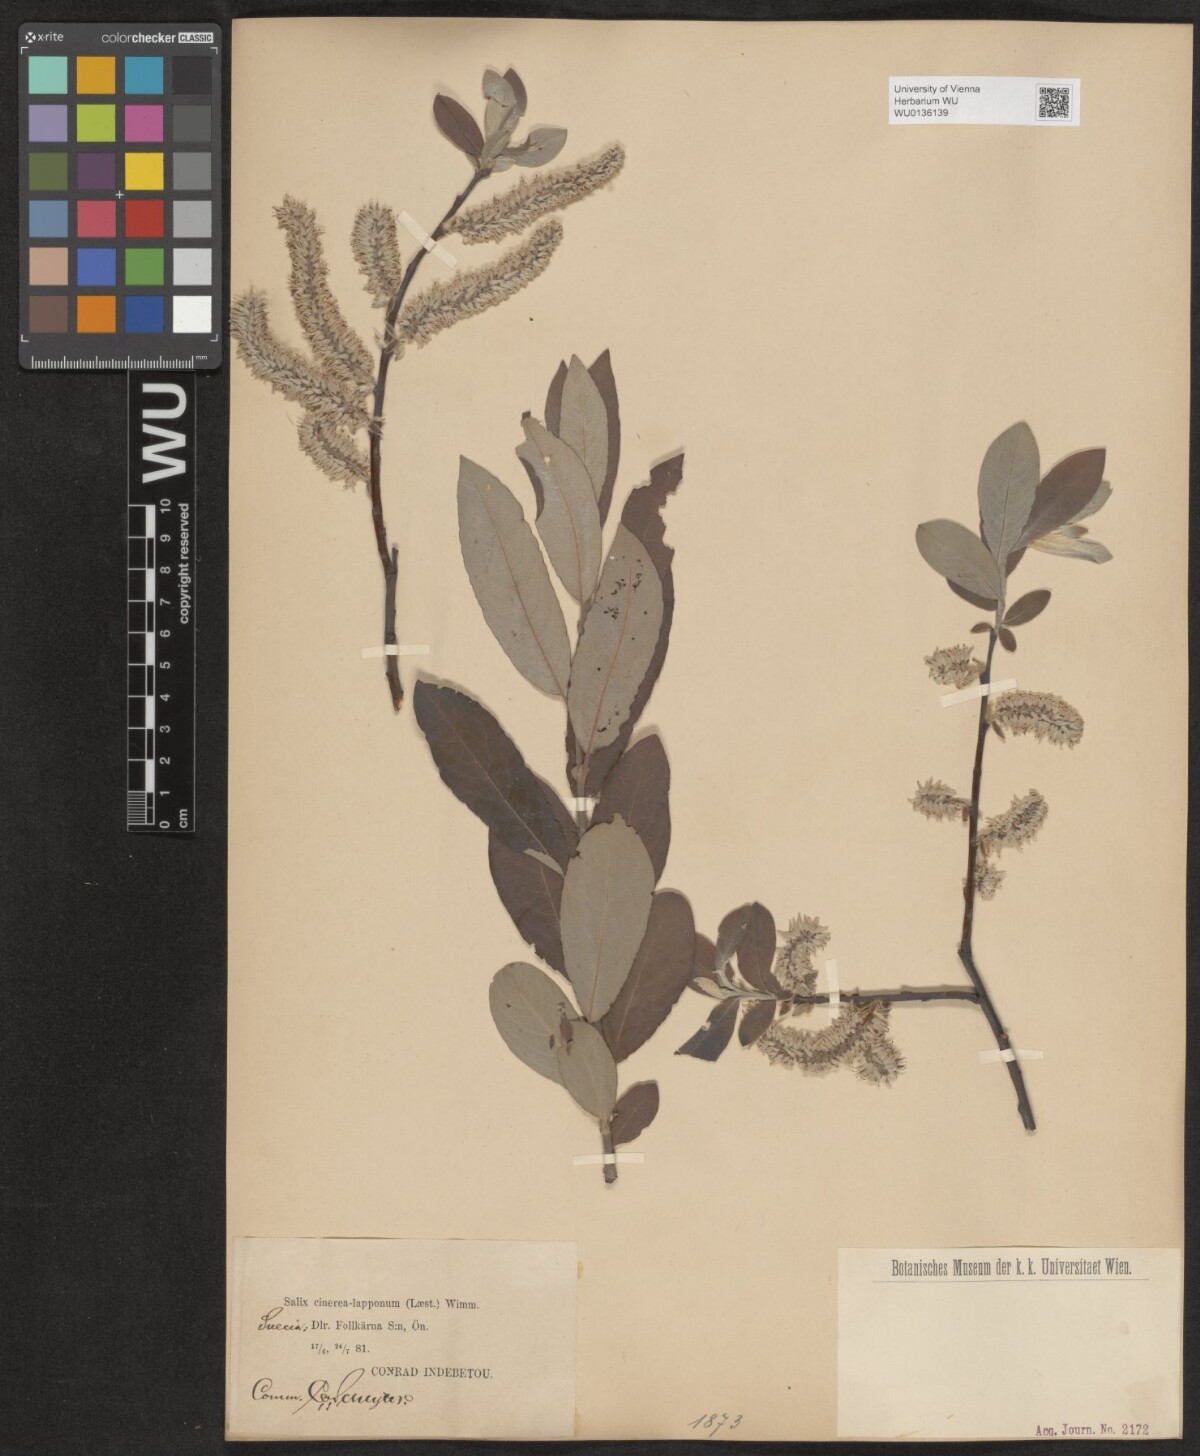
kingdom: Plantae
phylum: Tracheophyta
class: Magnoliopsida
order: Malpighiales
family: Salicaceae
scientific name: Salicaceae
